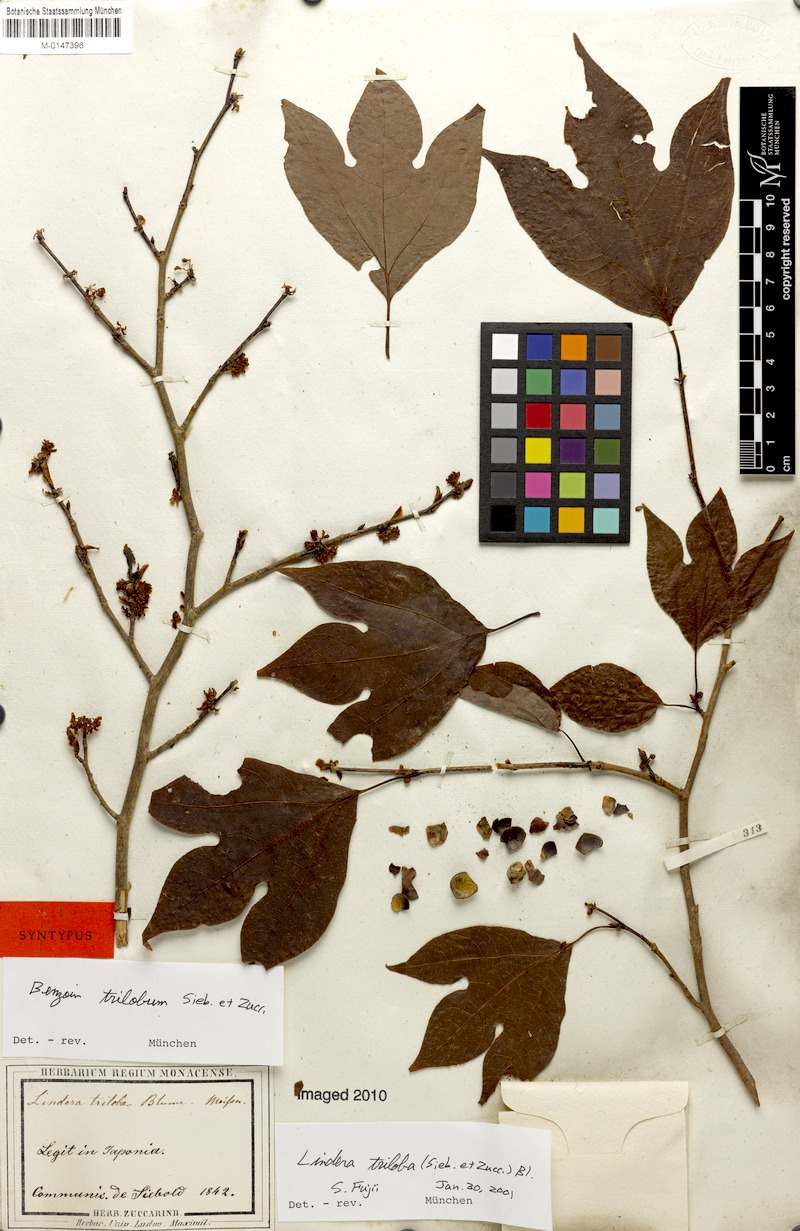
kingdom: Plantae
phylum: Tracheophyta
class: Magnoliopsida
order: Laurales
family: Lauraceae
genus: Lindera
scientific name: Lindera triloba
